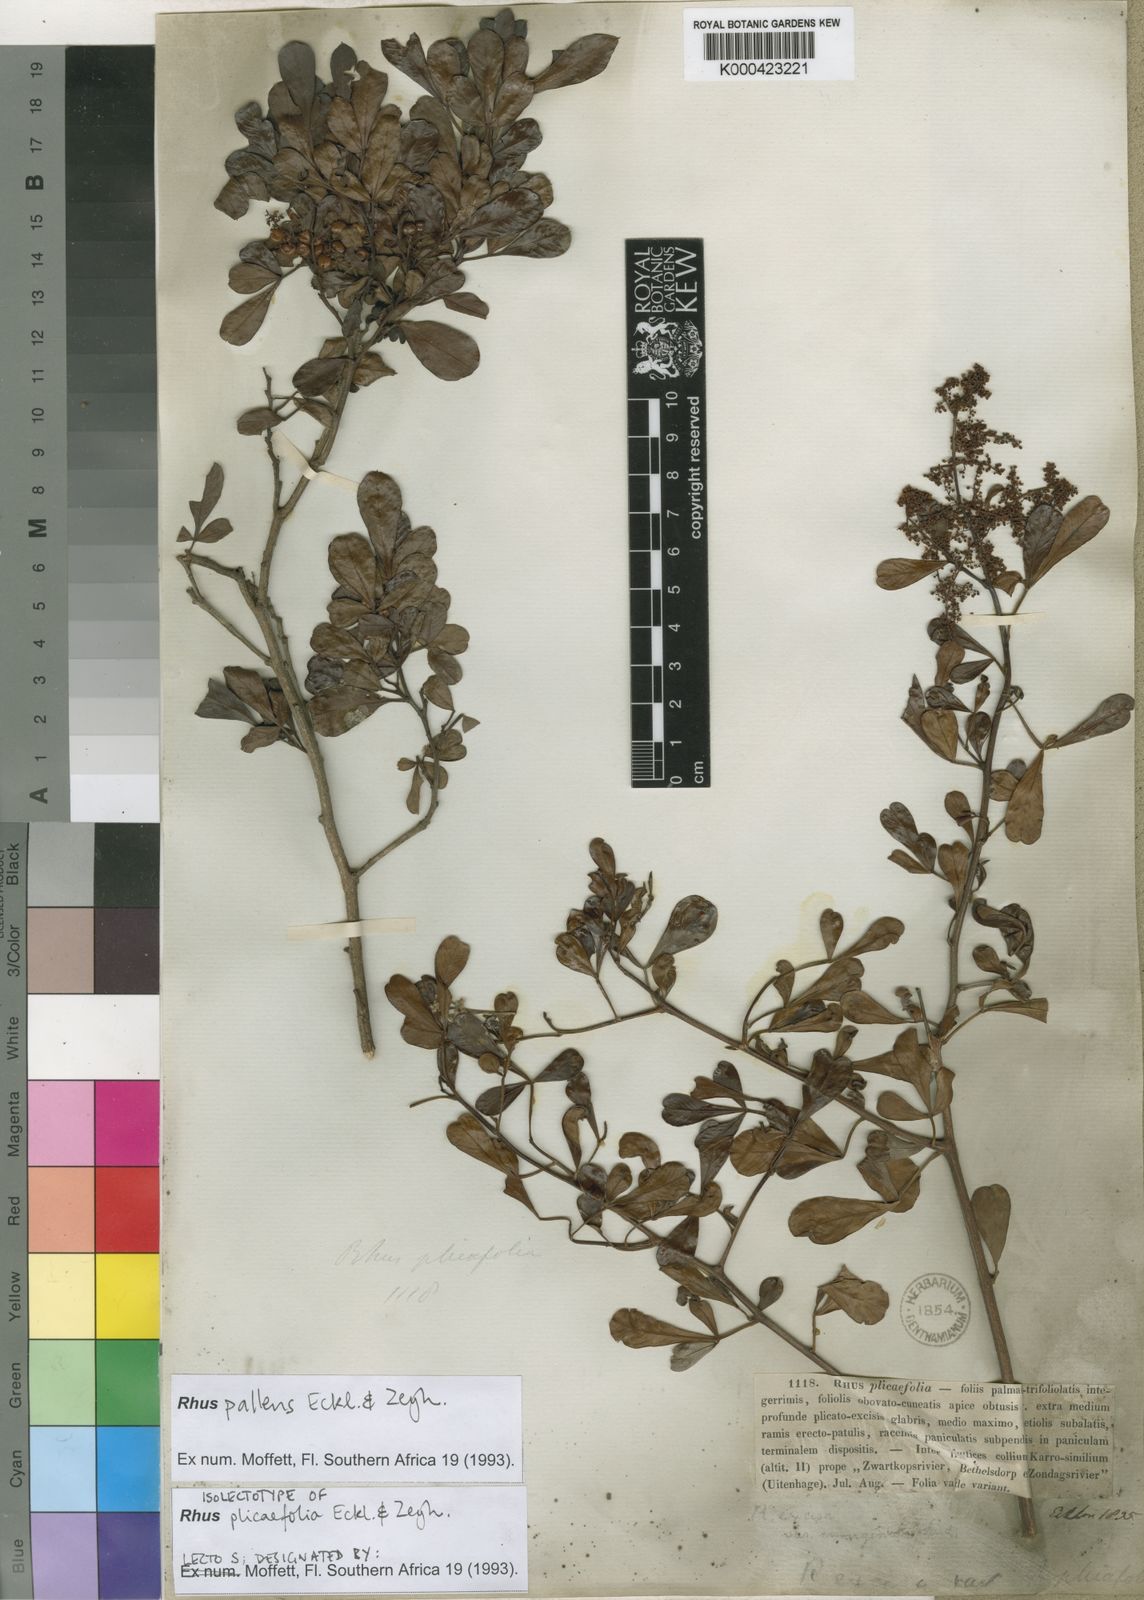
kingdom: Plantae
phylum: Tracheophyta
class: Magnoliopsida
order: Sapindales
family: Anacardiaceae
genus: Searsia
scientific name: Searsia pallens
